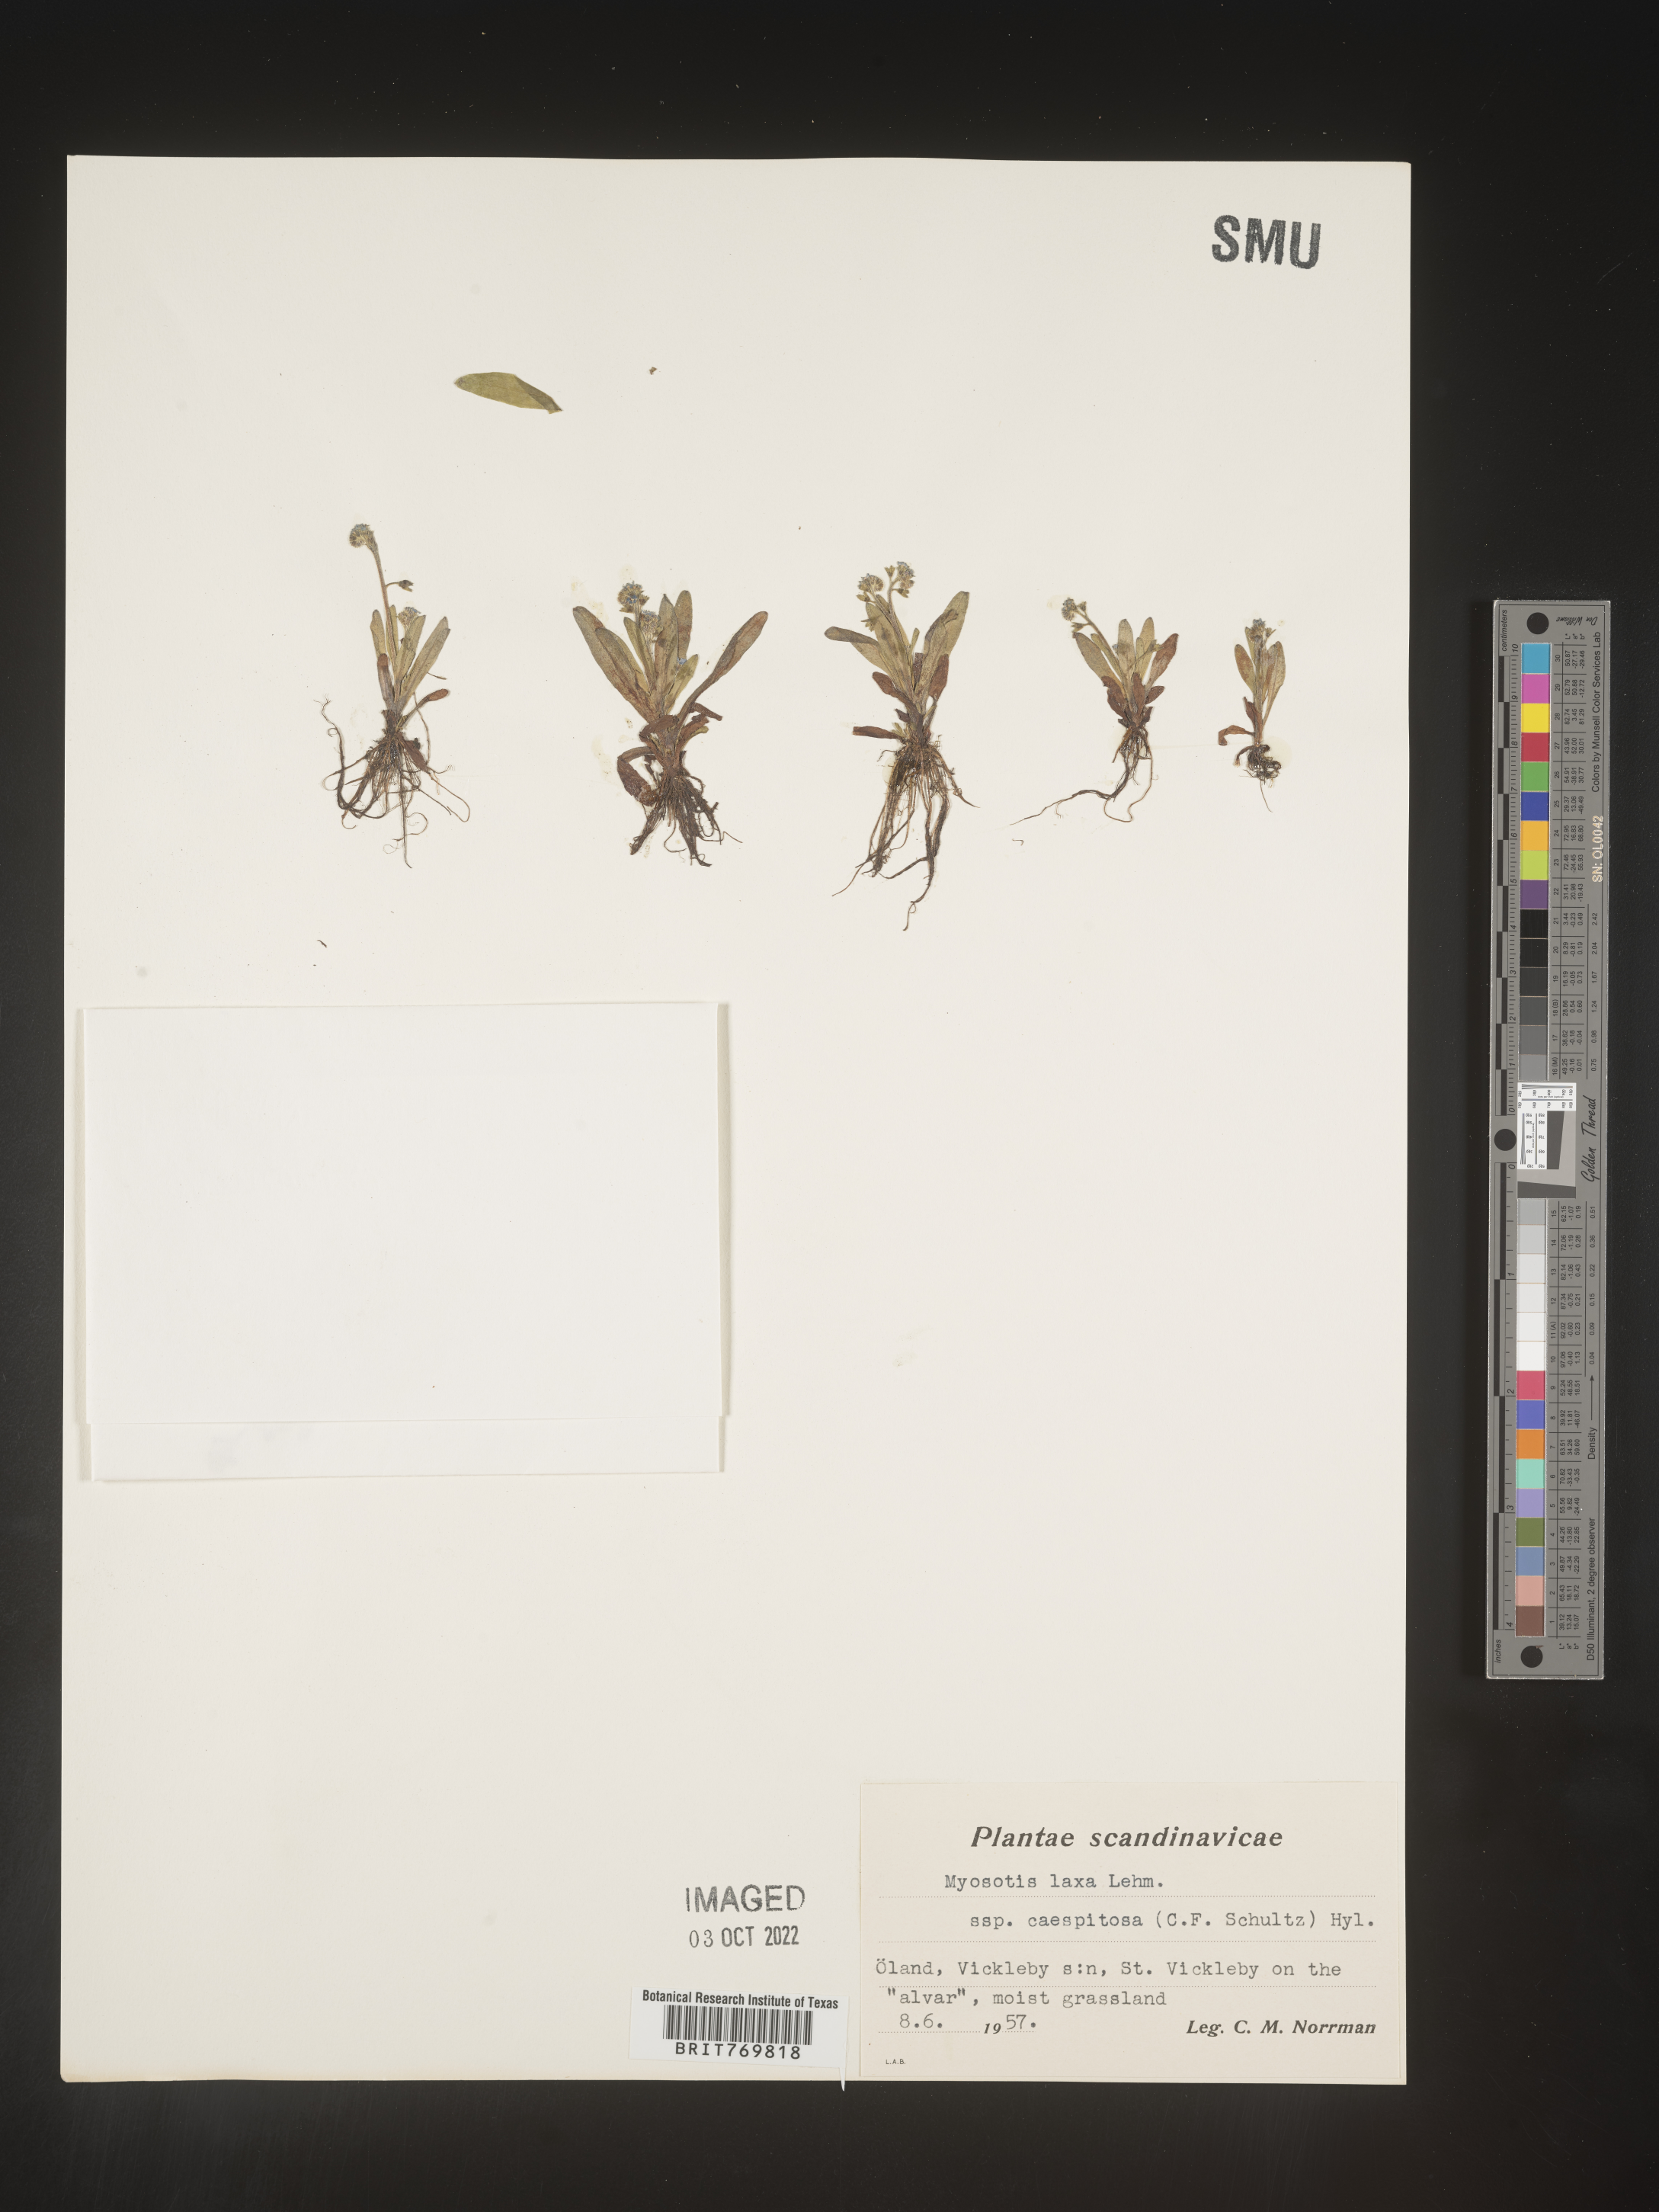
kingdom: Plantae
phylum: Tracheophyta
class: Magnoliopsida
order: Boraginales
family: Boraginaceae
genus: Myosotis
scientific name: Myosotis
